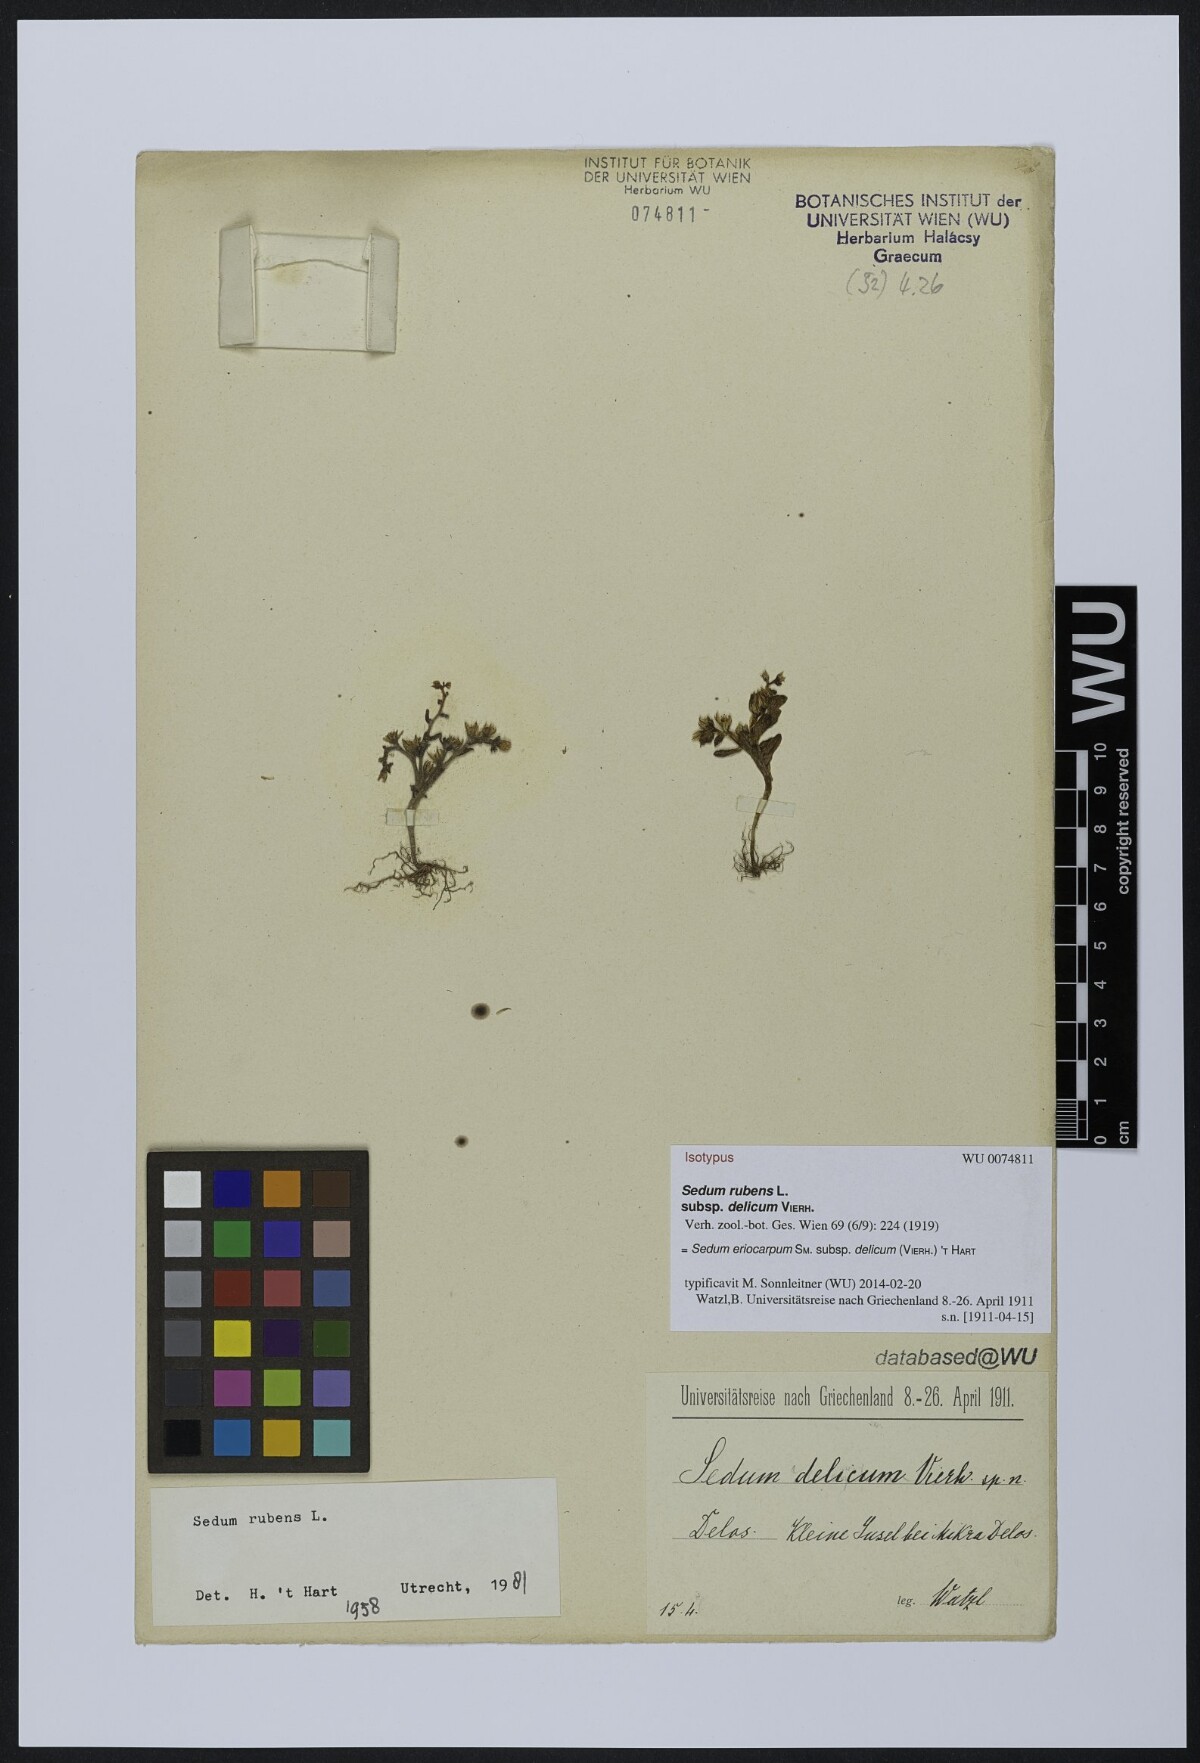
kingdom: Plantae
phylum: Tracheophyta
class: Magnoliopsida
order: Saxifragales
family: Crassulaceae
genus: Sedum
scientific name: Sedum eriocarpum
